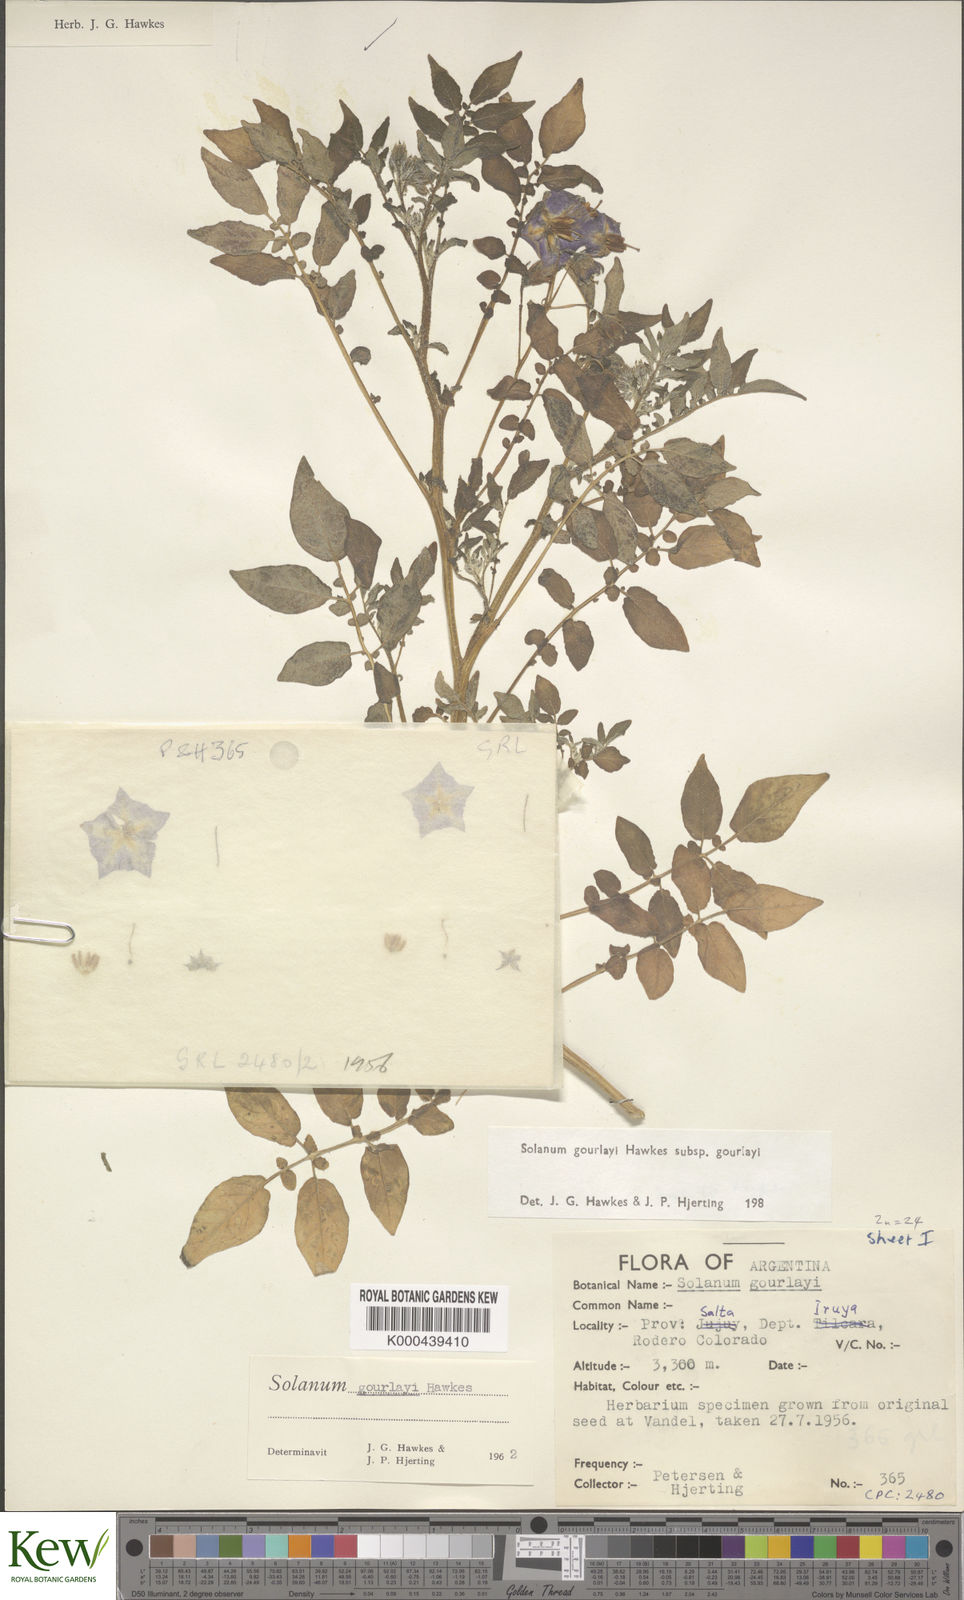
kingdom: Plantae
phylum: Tracheophyta
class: Magnoliopsida
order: Solanales
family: Solanaceae
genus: Solanum
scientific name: Solanum brevicaule
